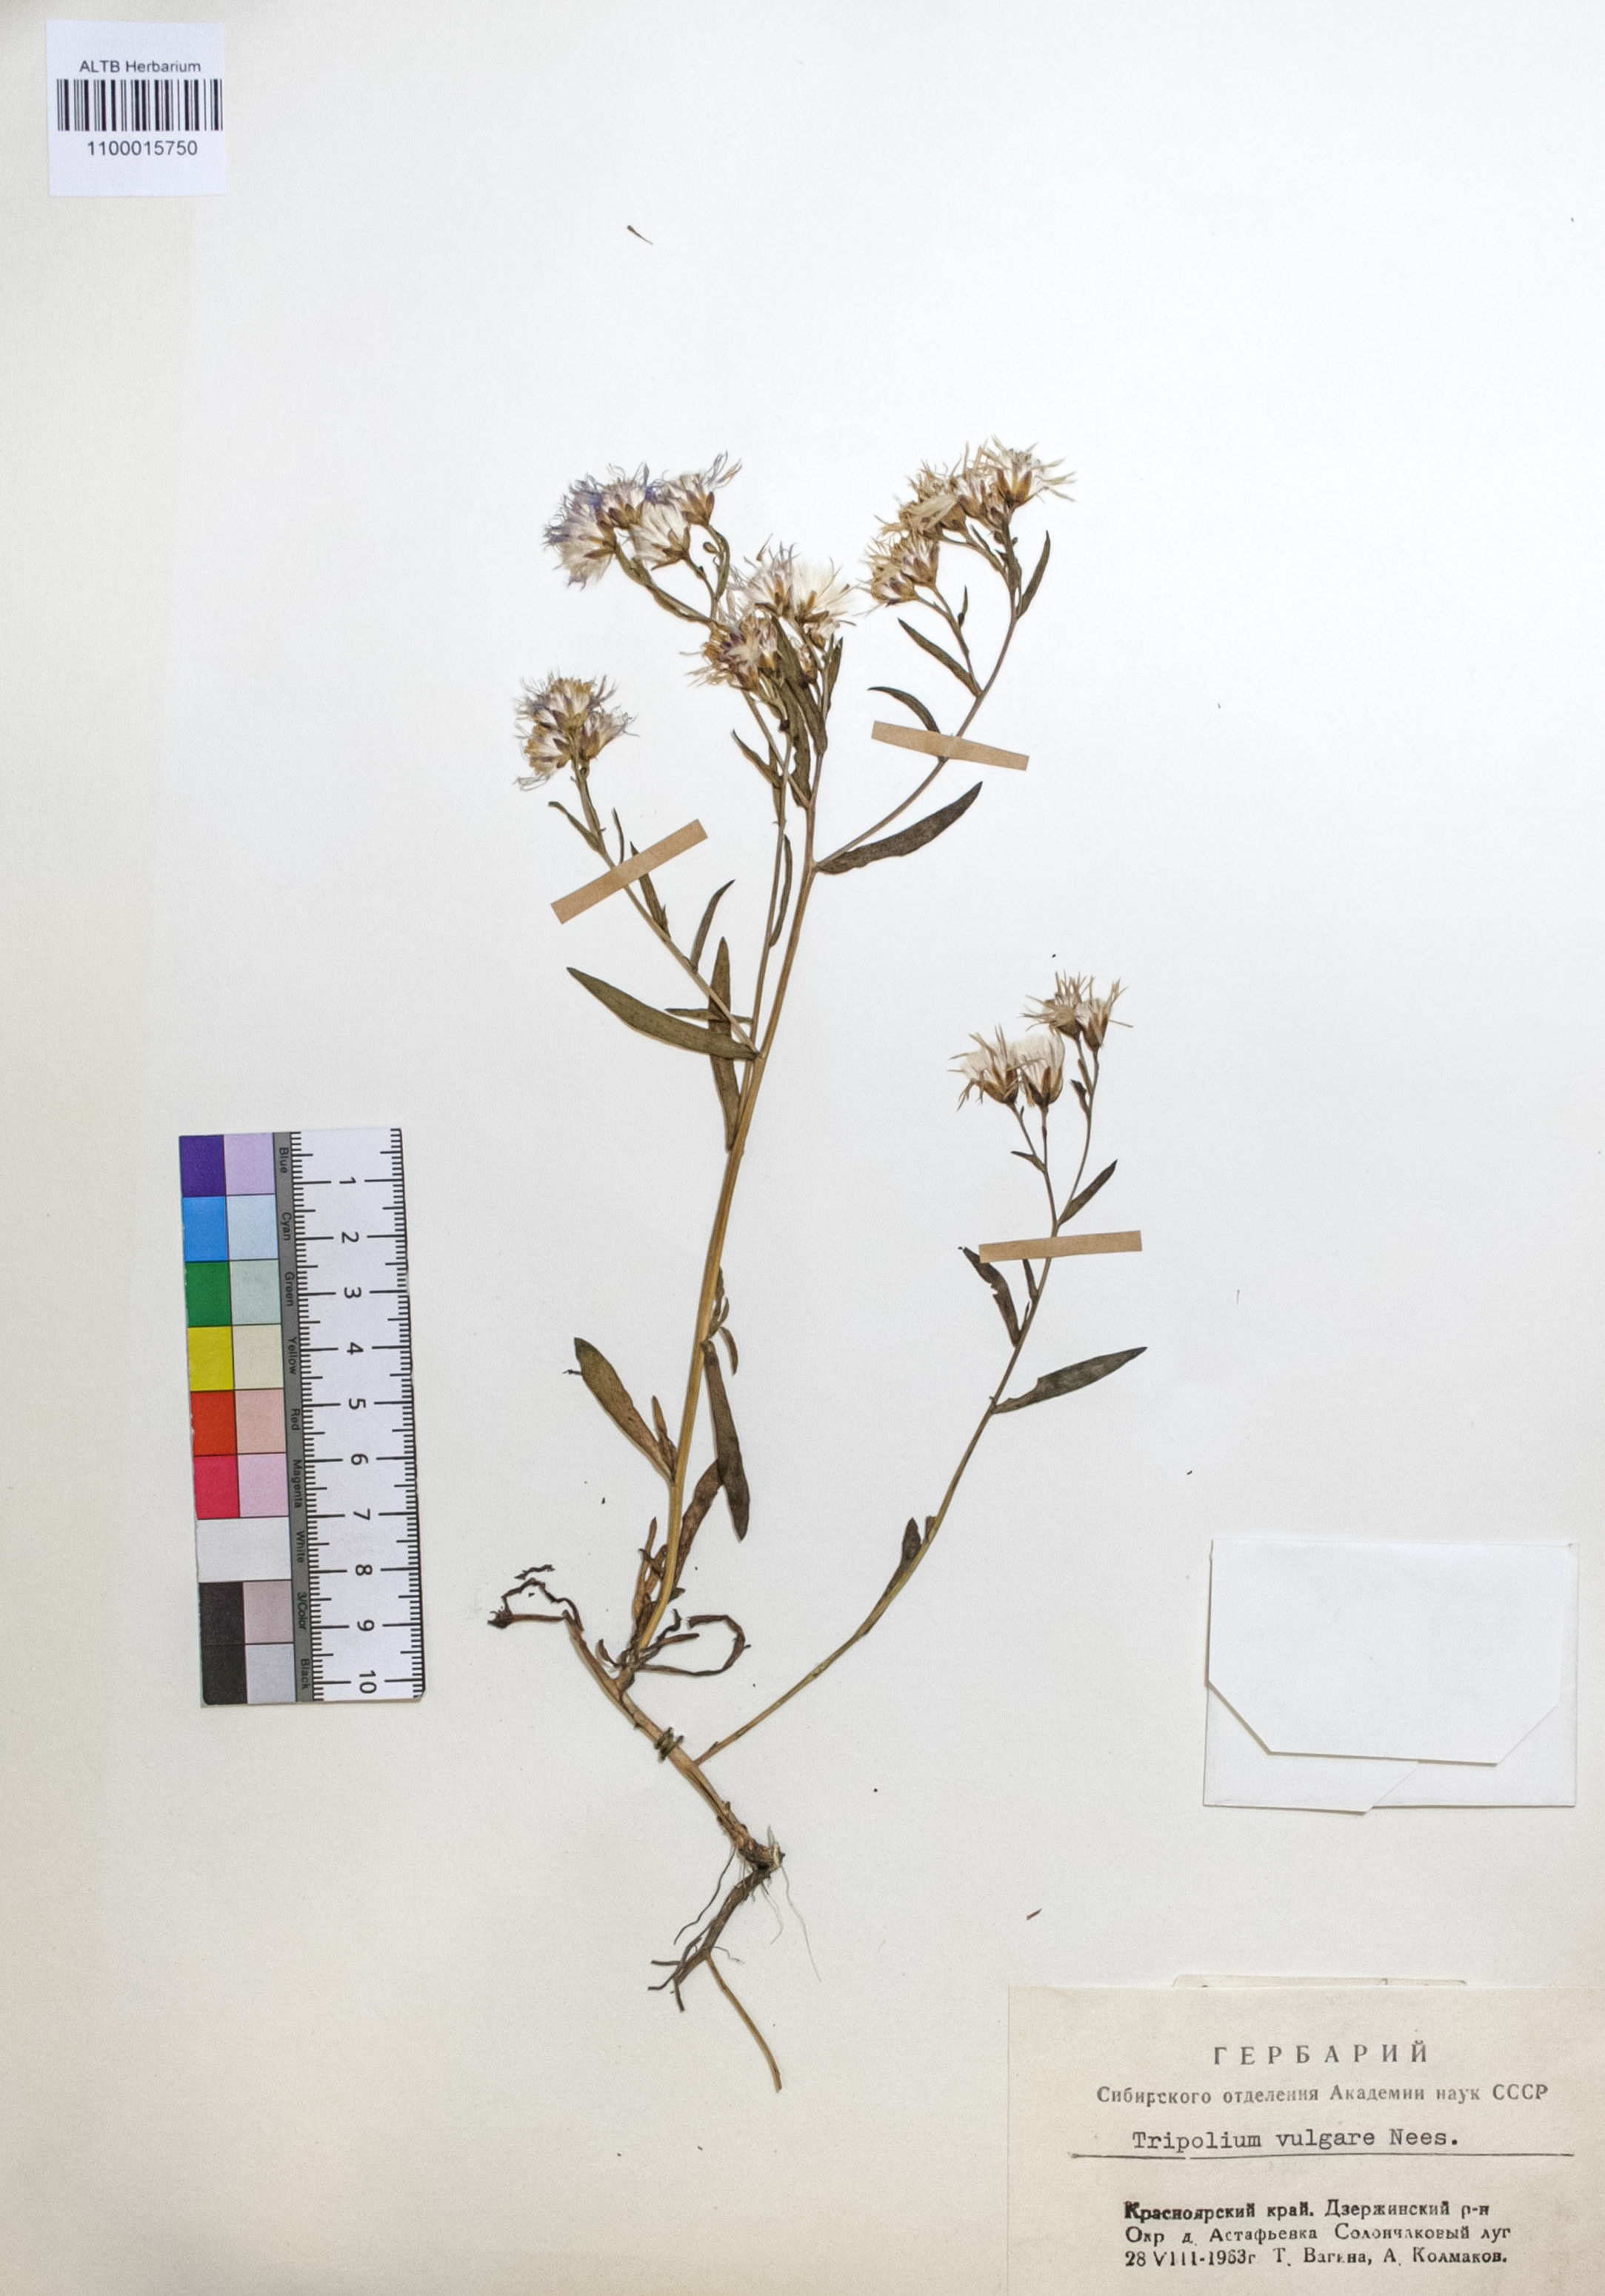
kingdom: Plantae
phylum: Tracheophyta
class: Magnoliopsida
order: Asterales
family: Asteraceae
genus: Tripolium
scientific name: Tripolium pannonicum
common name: Sea aster
